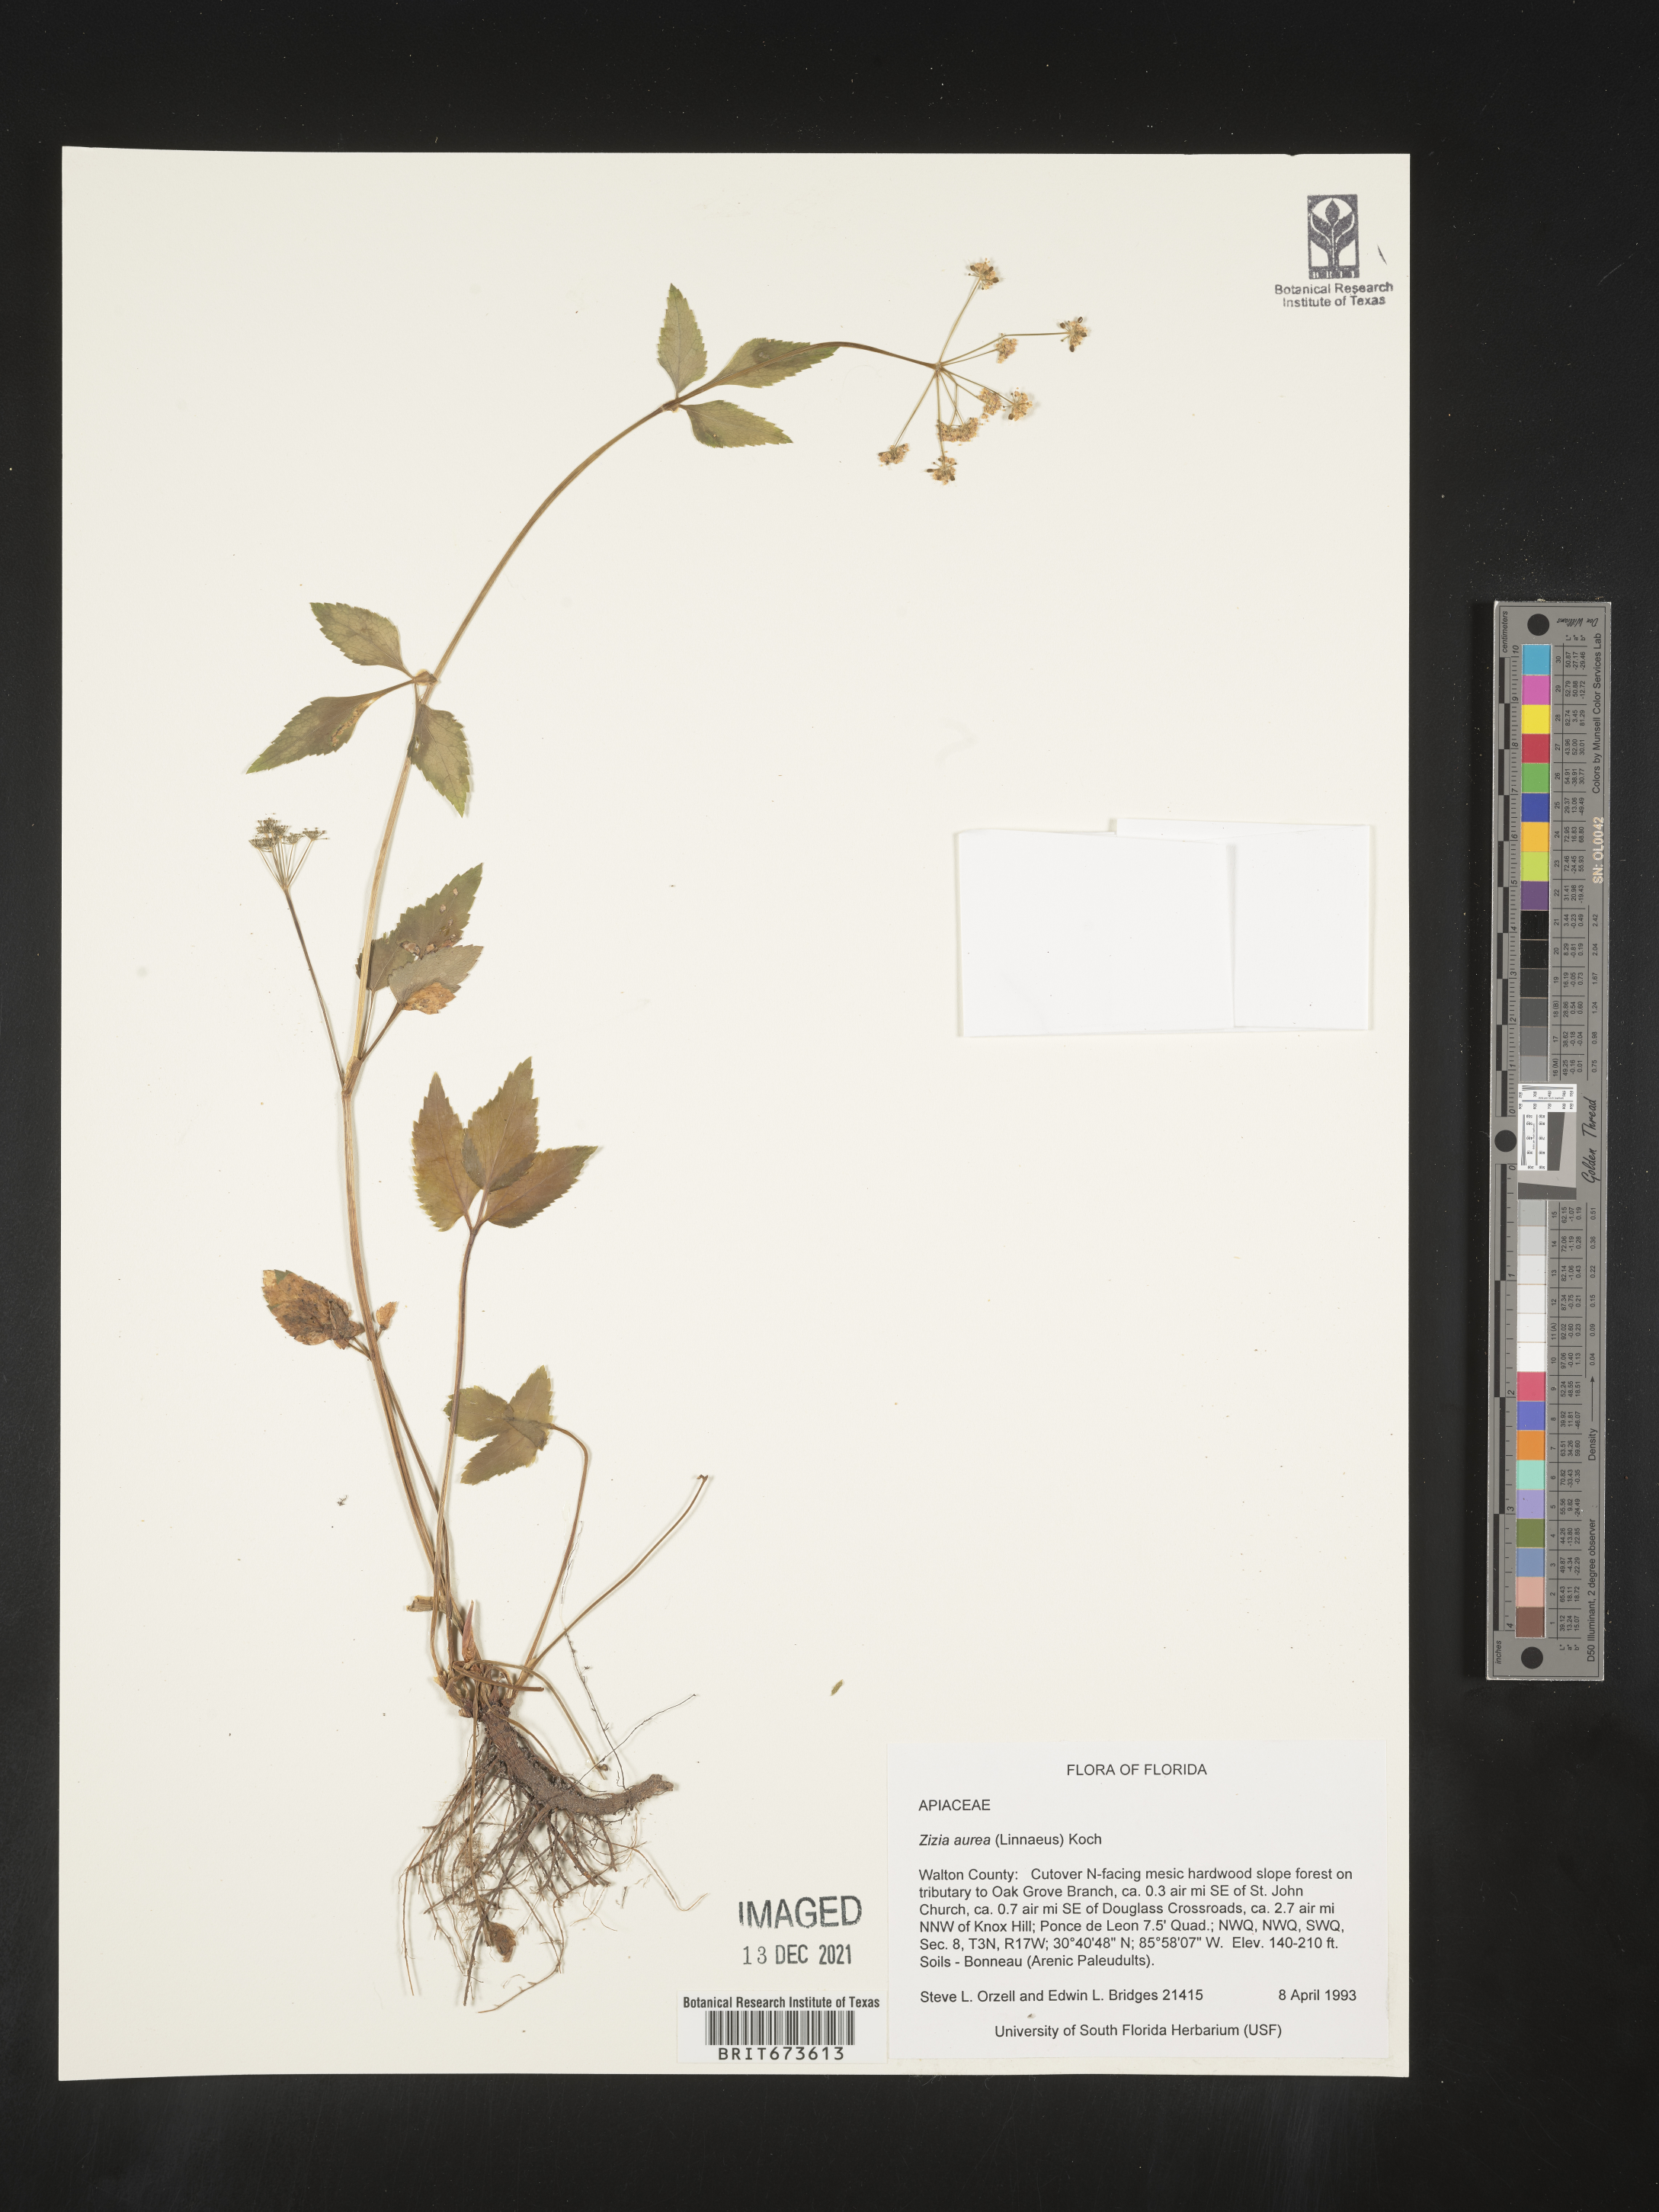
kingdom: Plantae
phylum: Tracheophyta
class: Magnoliopsida
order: Apiales
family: Apiaceae
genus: Zizia
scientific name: Zizia aurea
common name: Golden alexanders
